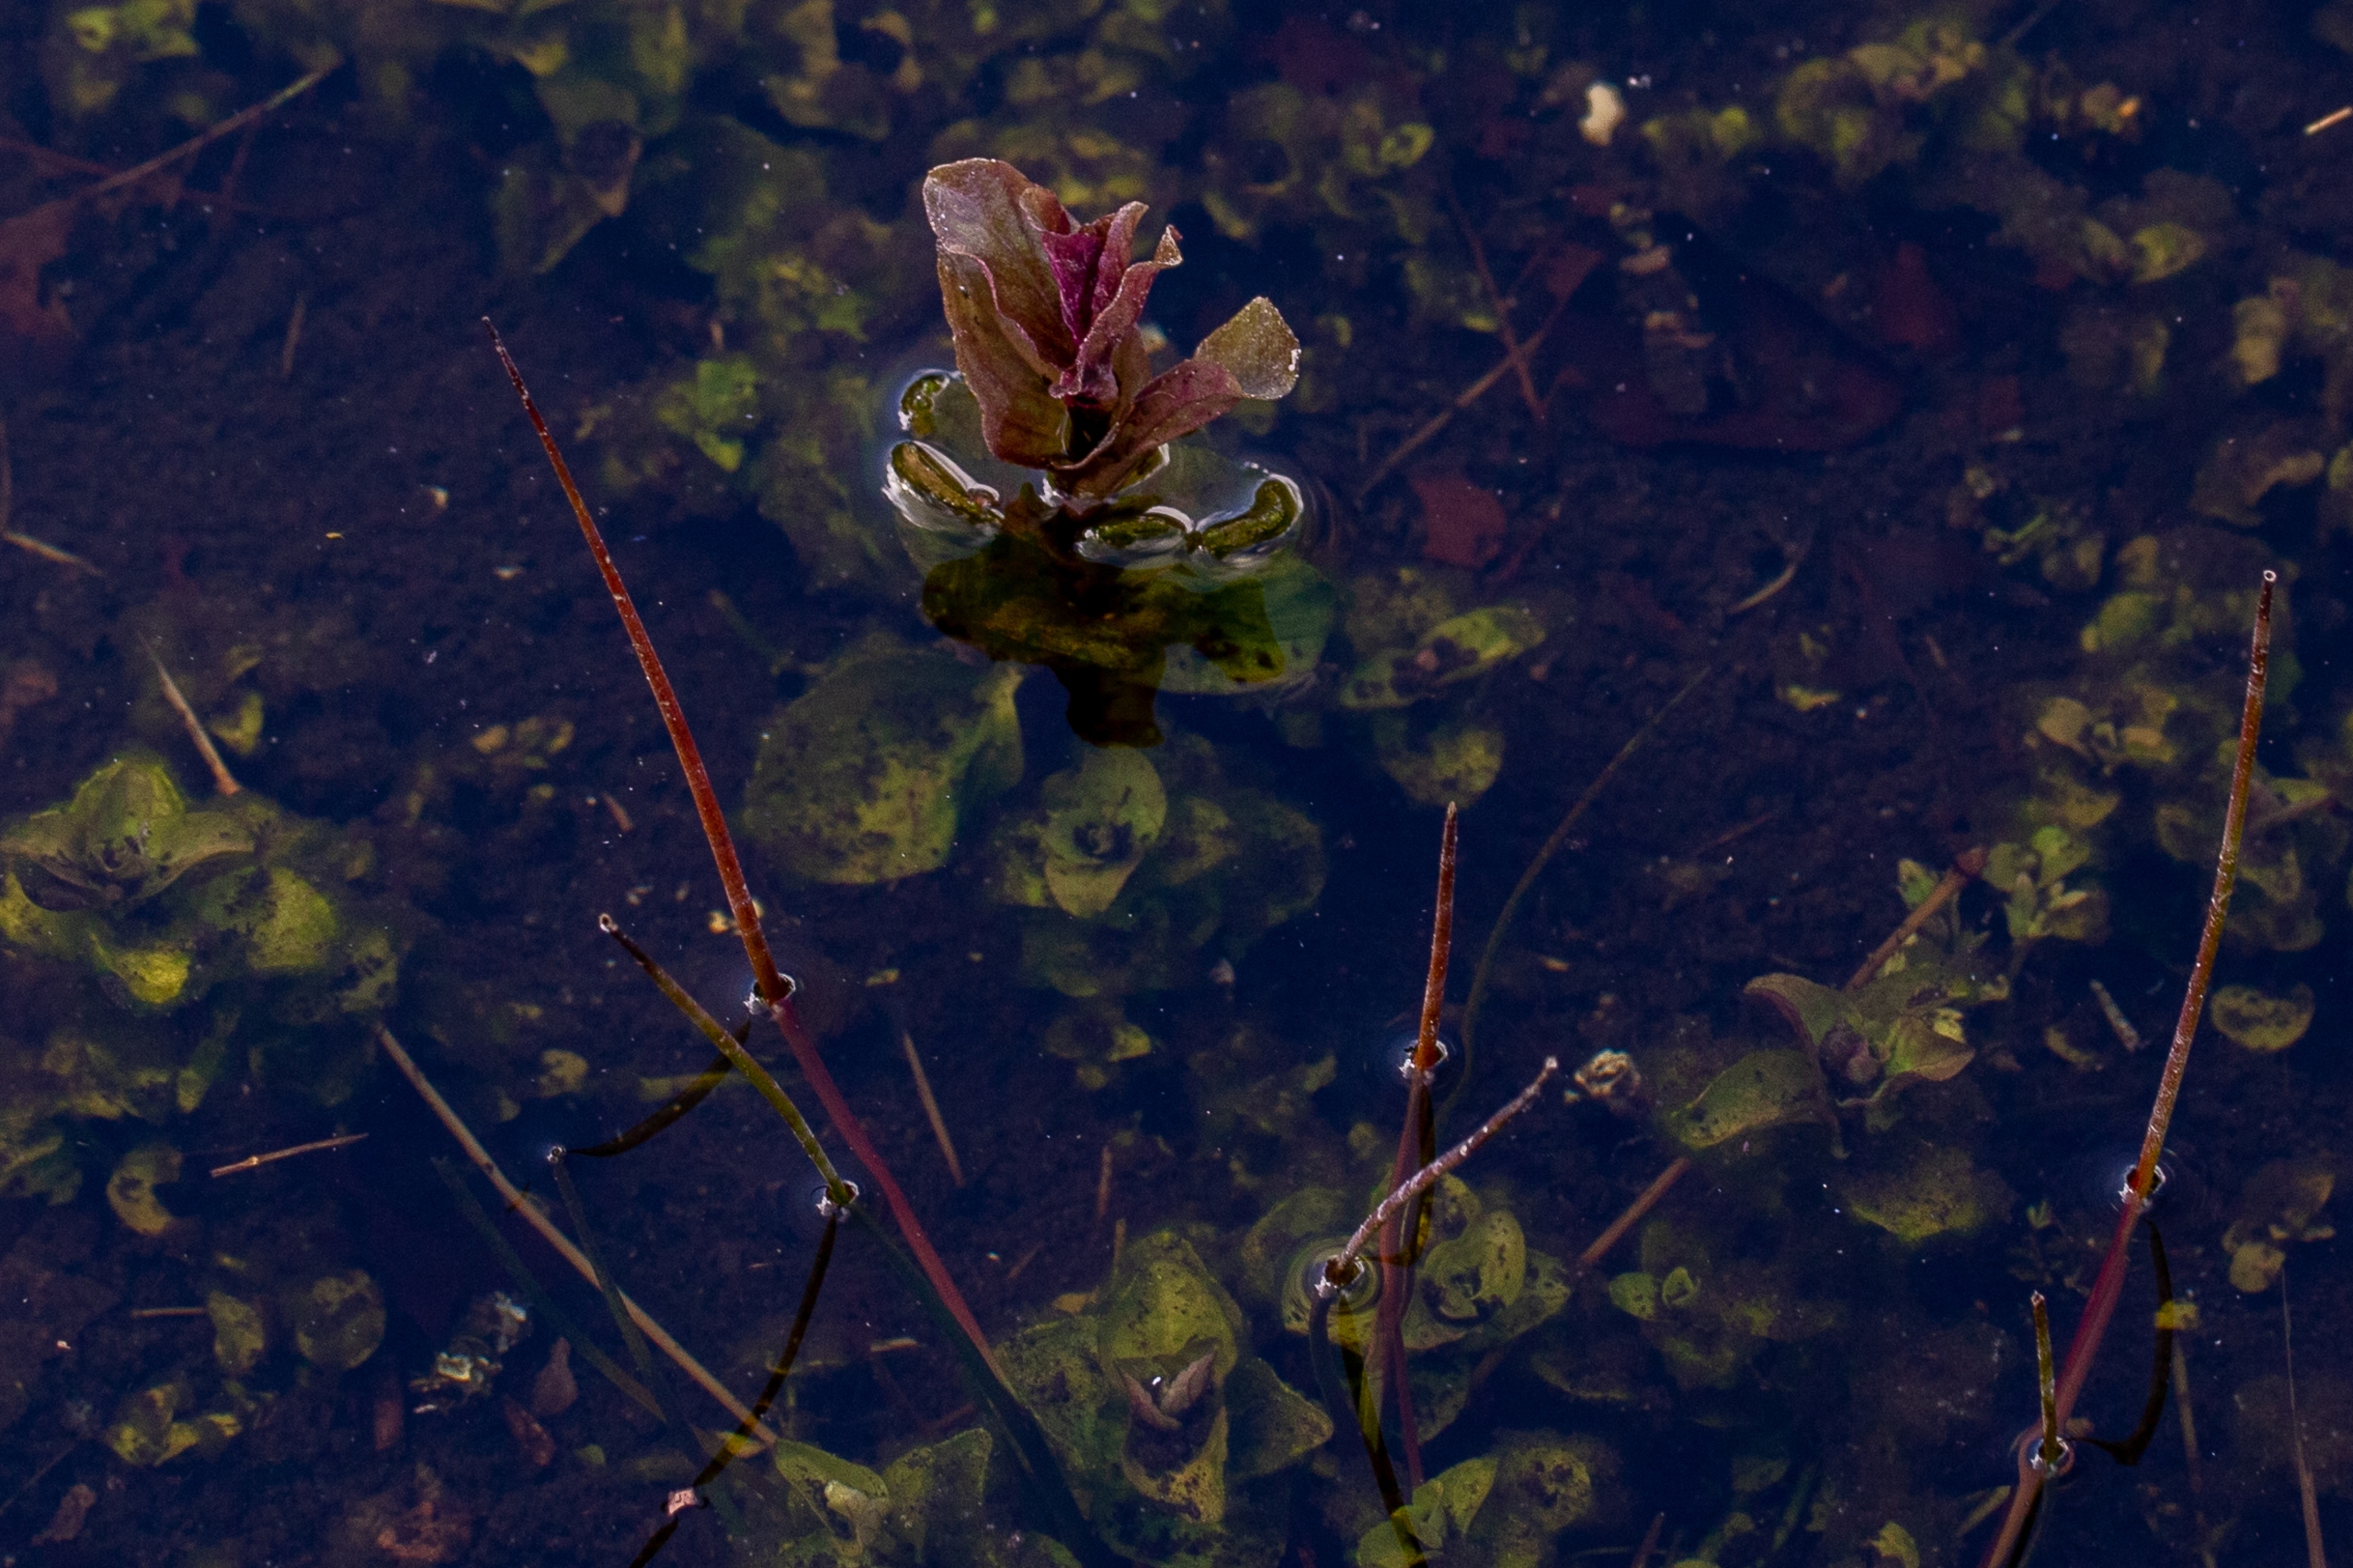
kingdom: Plantae
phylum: Tracheophyta
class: Magnoliopsida
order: Lamiales
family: Lamiaceae
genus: Mentha
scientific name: Mentha
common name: Mynteslægten
